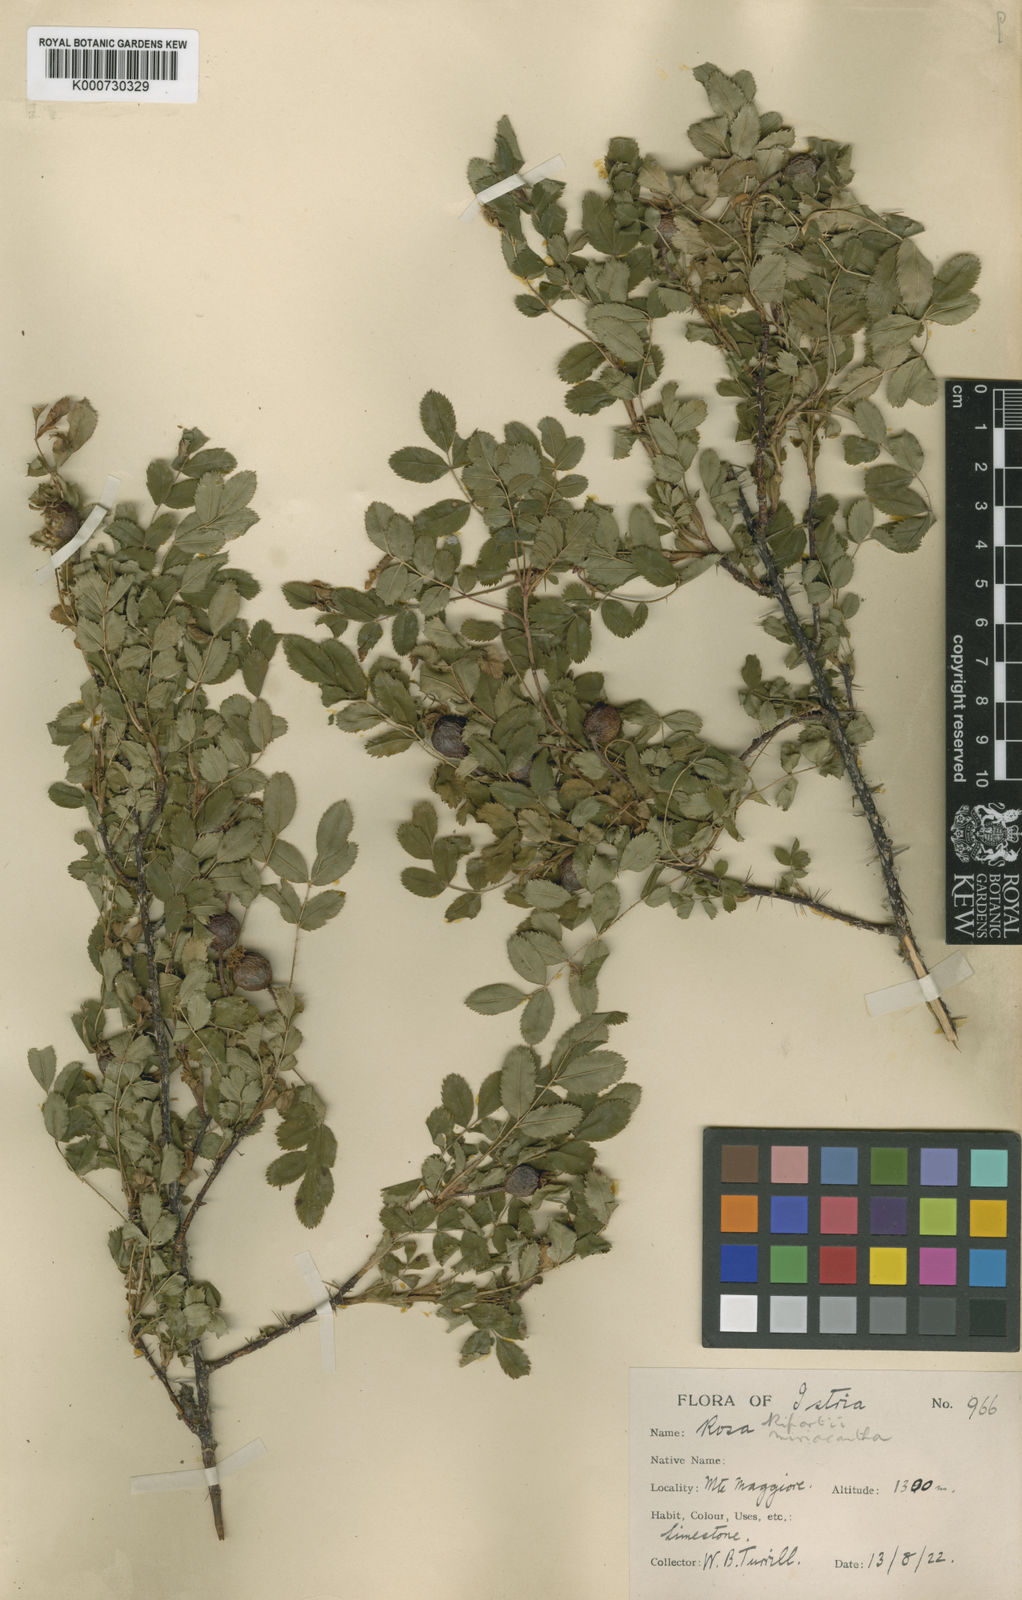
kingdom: Plantae
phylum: Tracheophyta
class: Magnoliopsida
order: Rosales
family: Rosaceae
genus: Rosa
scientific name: Rosa spinosissima
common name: Burnet rose
